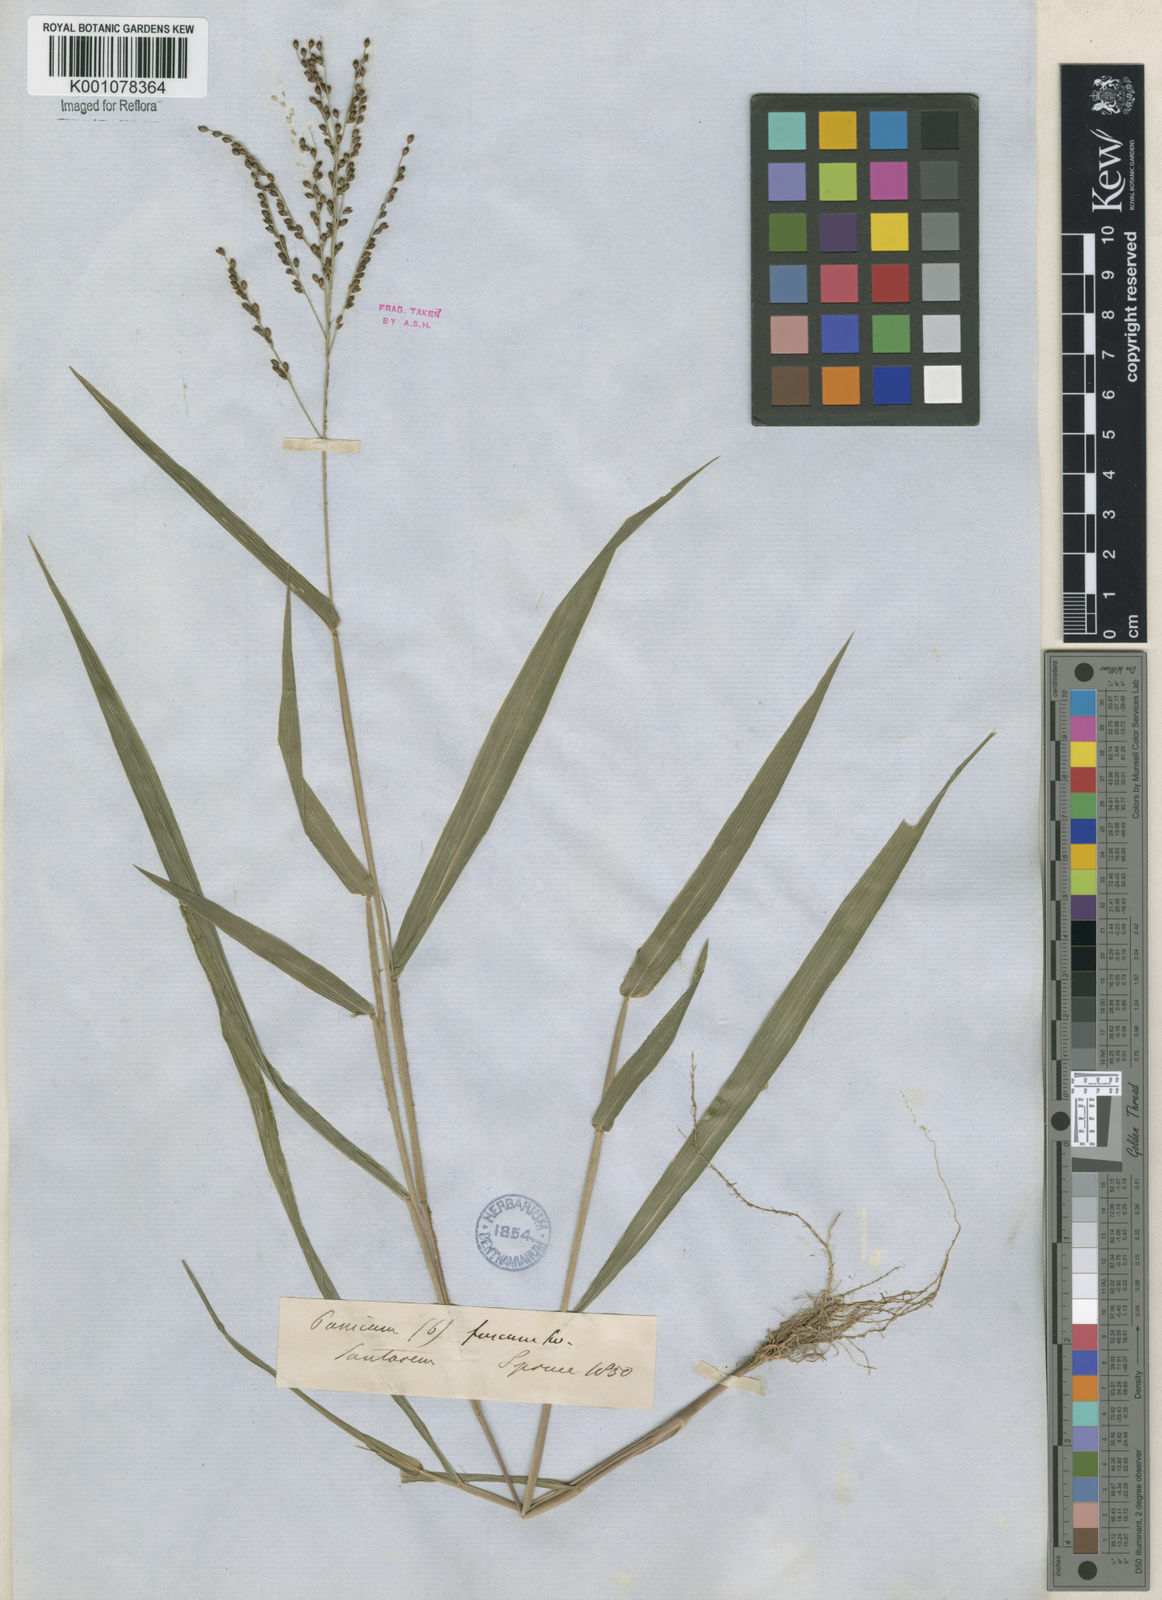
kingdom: Plantae
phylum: Tracheophyta
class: Liliopsida
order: Poales
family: Poaceae
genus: Urochloa
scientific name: Urochloa fusca
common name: Browntop signal grass
